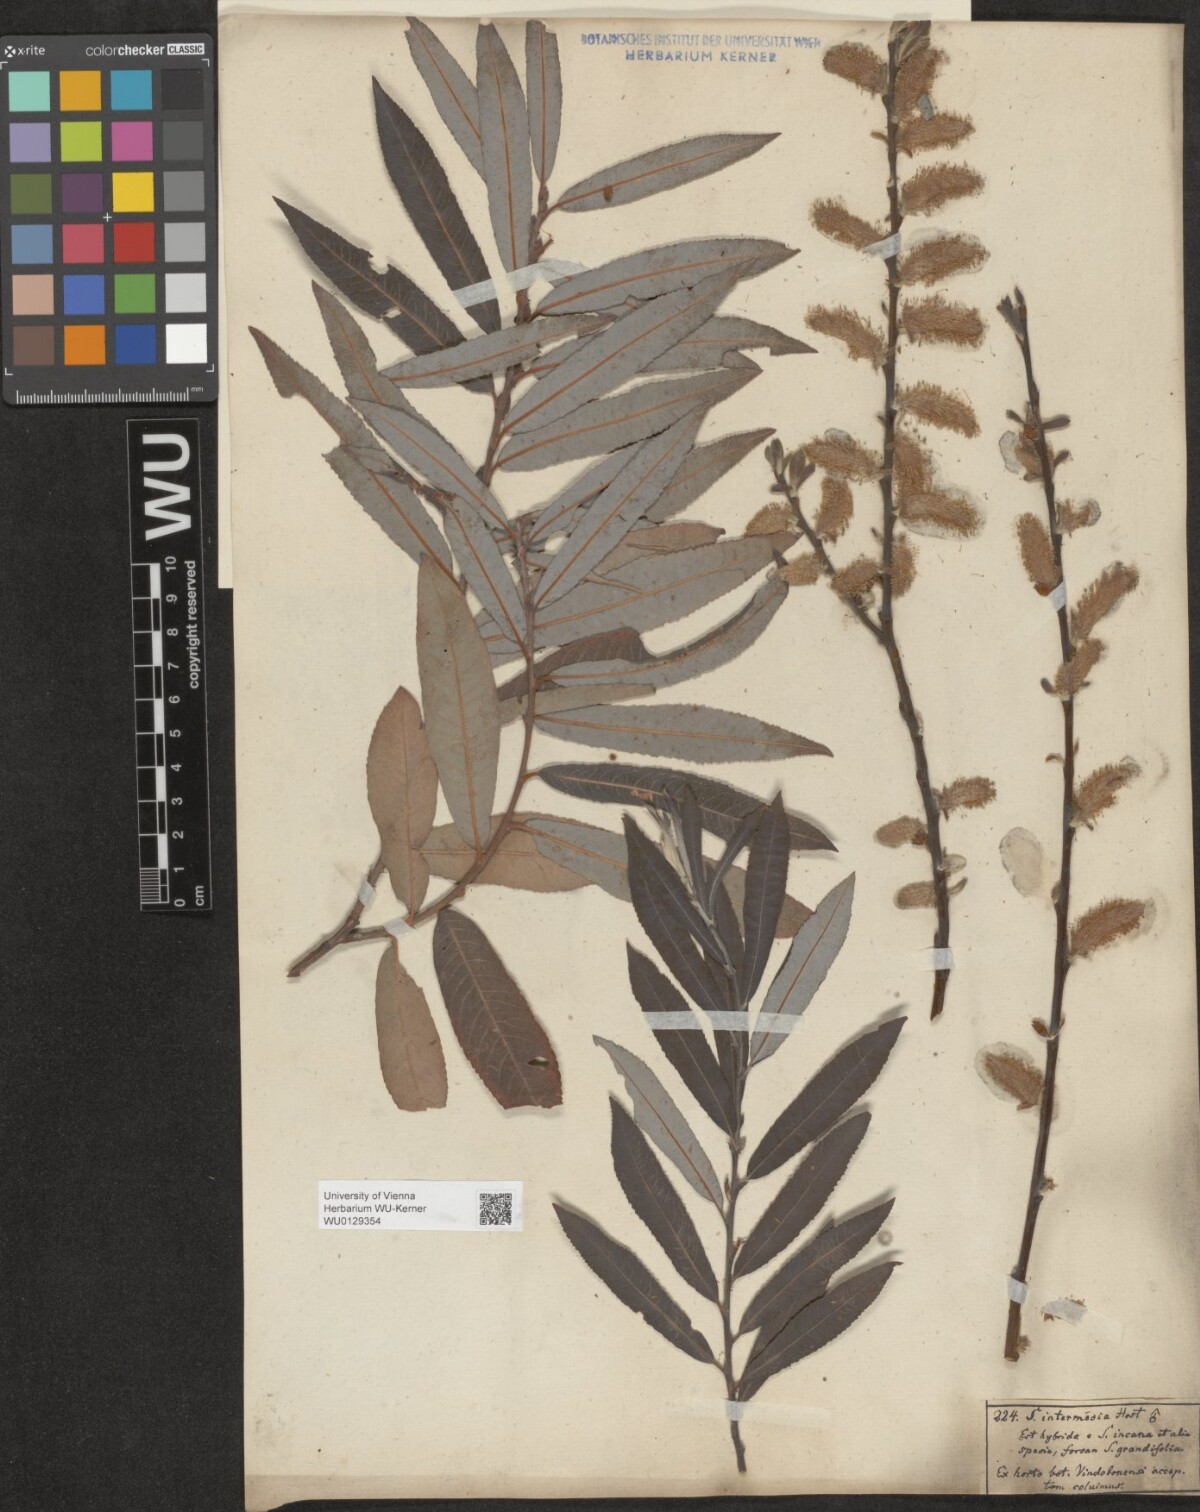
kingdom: Plantae
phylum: Tracheophyta
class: Magnoliopsida
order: Malpighiales
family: Salicaceae
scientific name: Salicaceae
